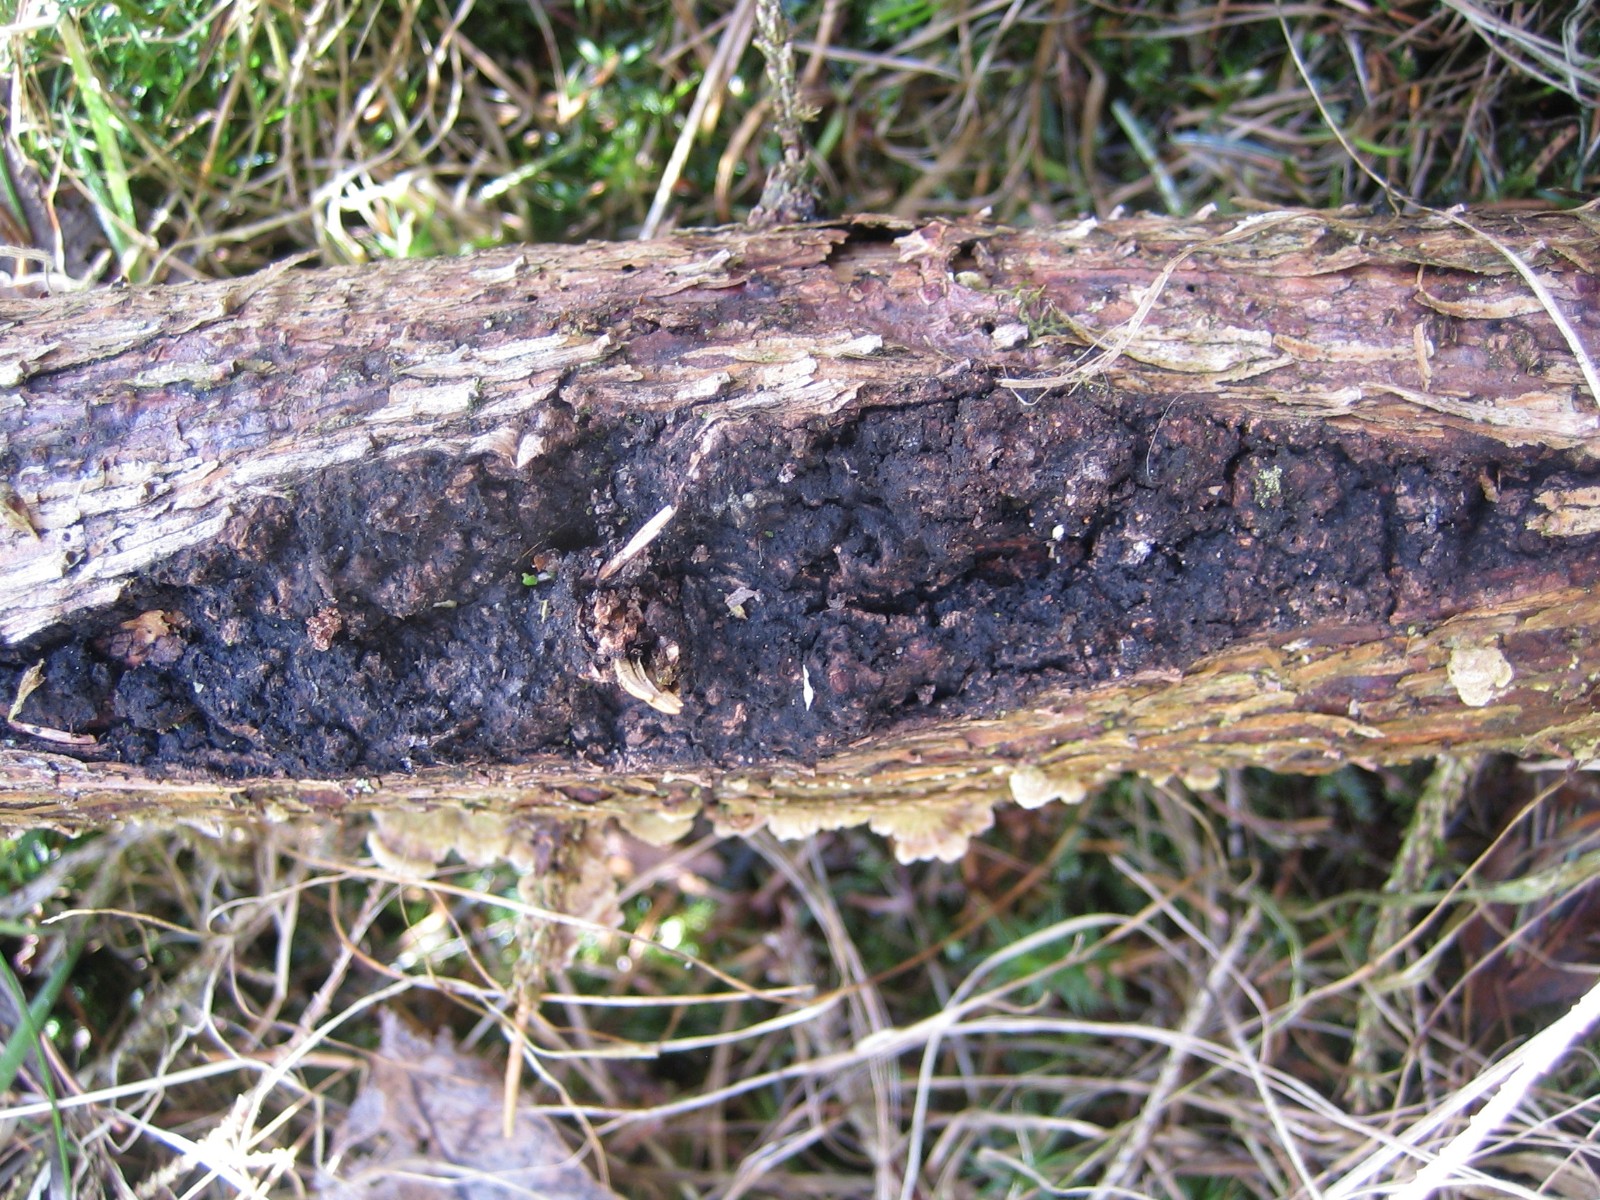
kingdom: Fungi
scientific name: Fungi
